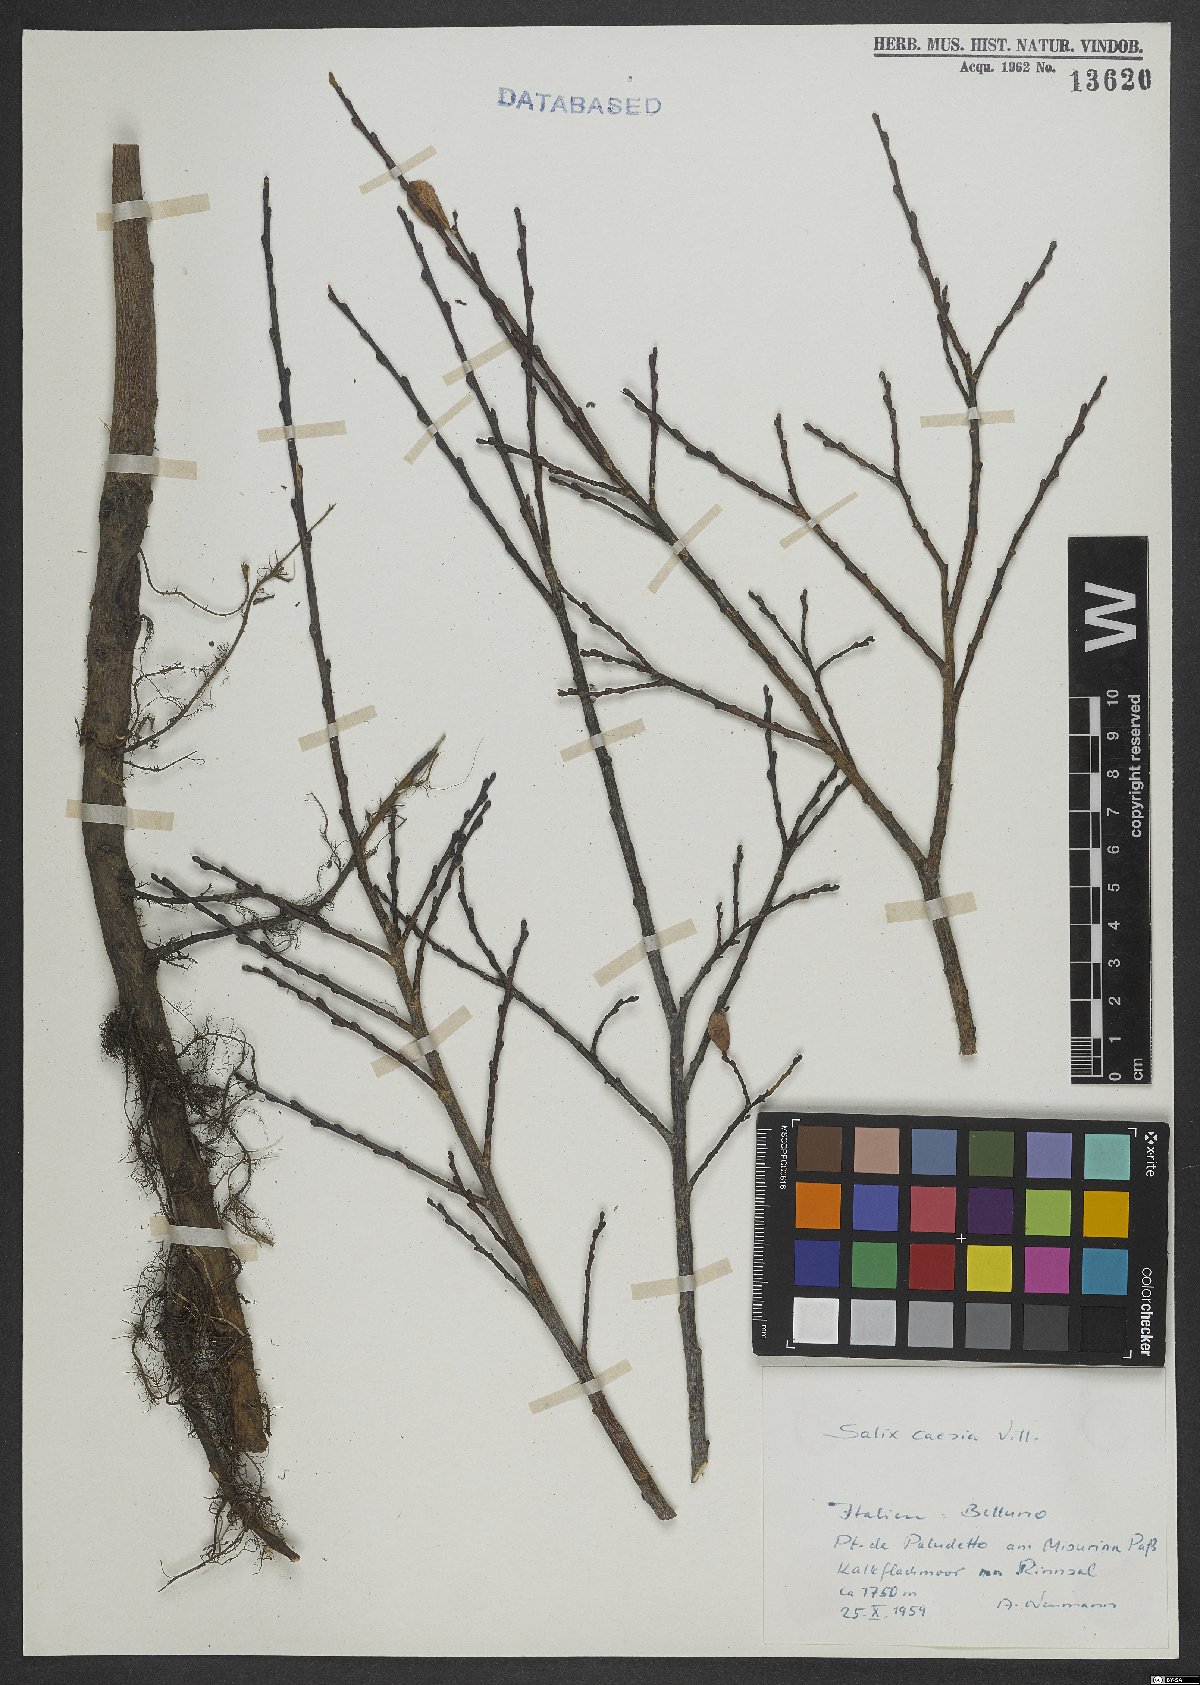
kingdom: Plantae
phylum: Tracheophyta
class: Magnoliopsida
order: Malpighiales
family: Salicaceae
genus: Salix
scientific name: Salix caesia
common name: Blue willow
